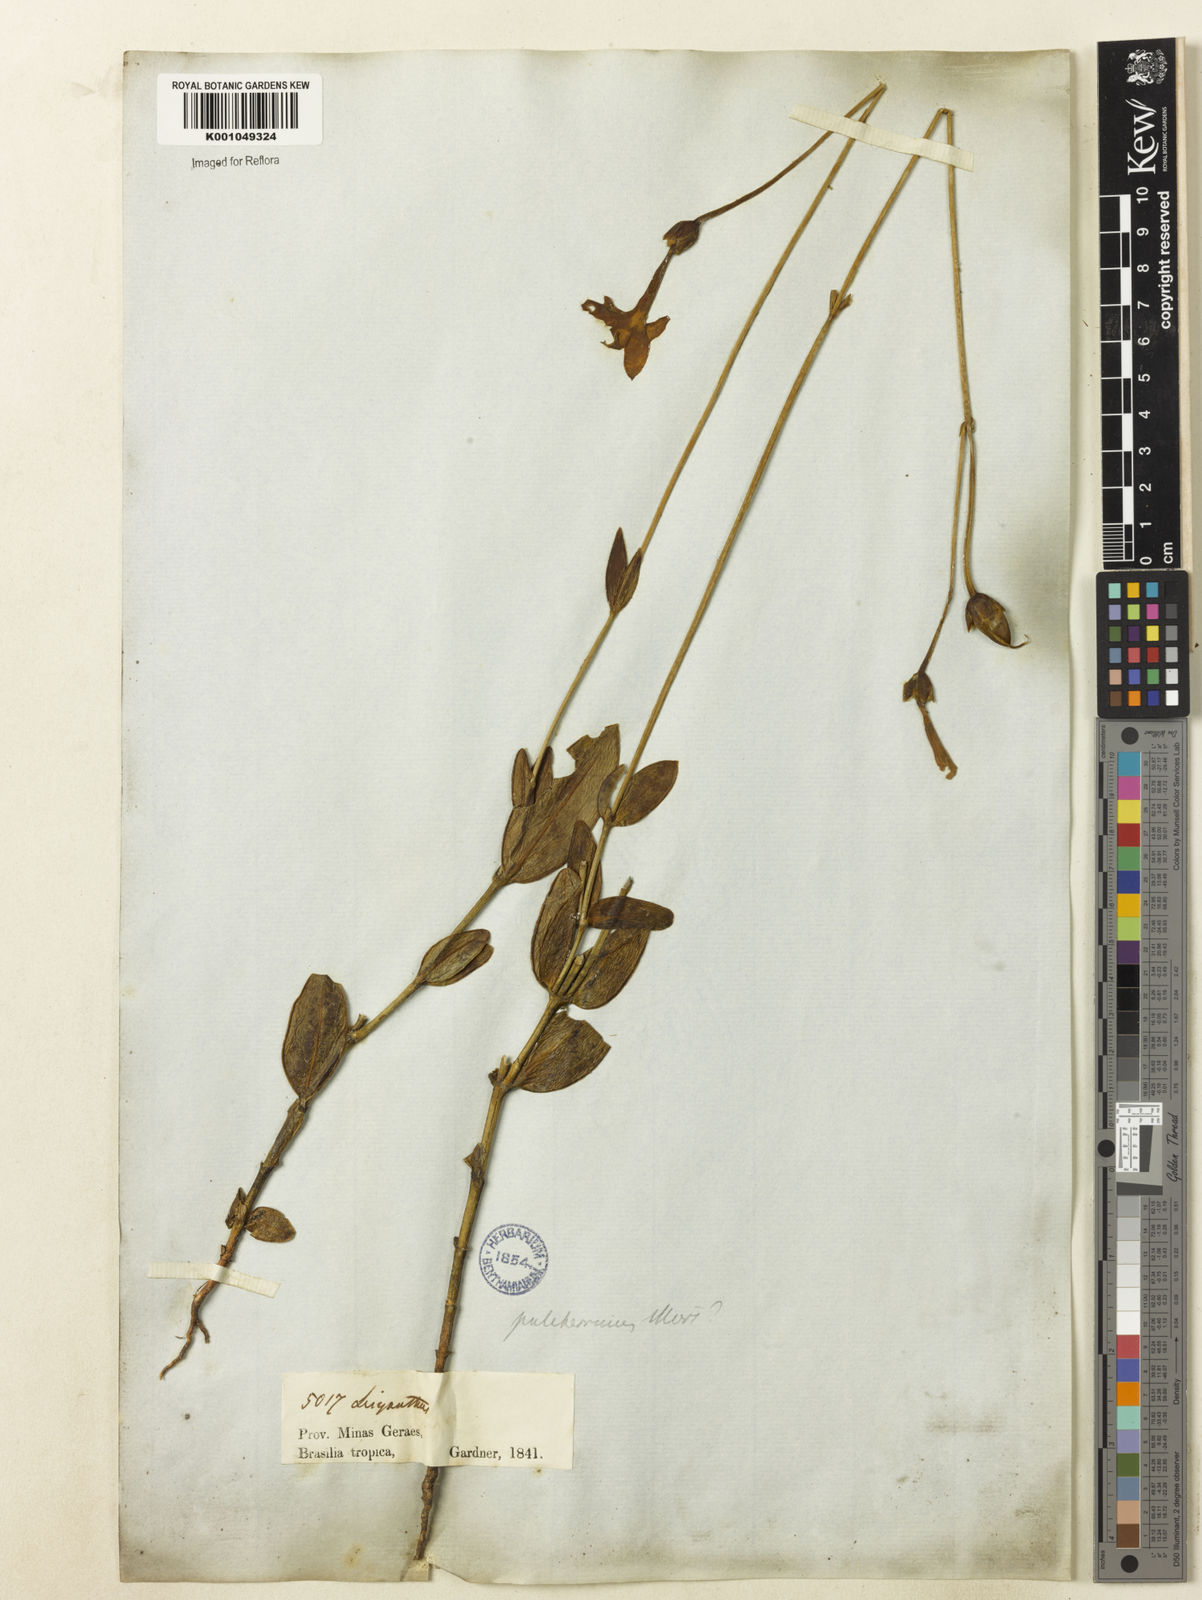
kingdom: Plantae
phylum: Tracheophyta
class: Magnoliopsida
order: Gentianales
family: Gentianaceae
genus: Calolisianthus
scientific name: Calolisianthus
